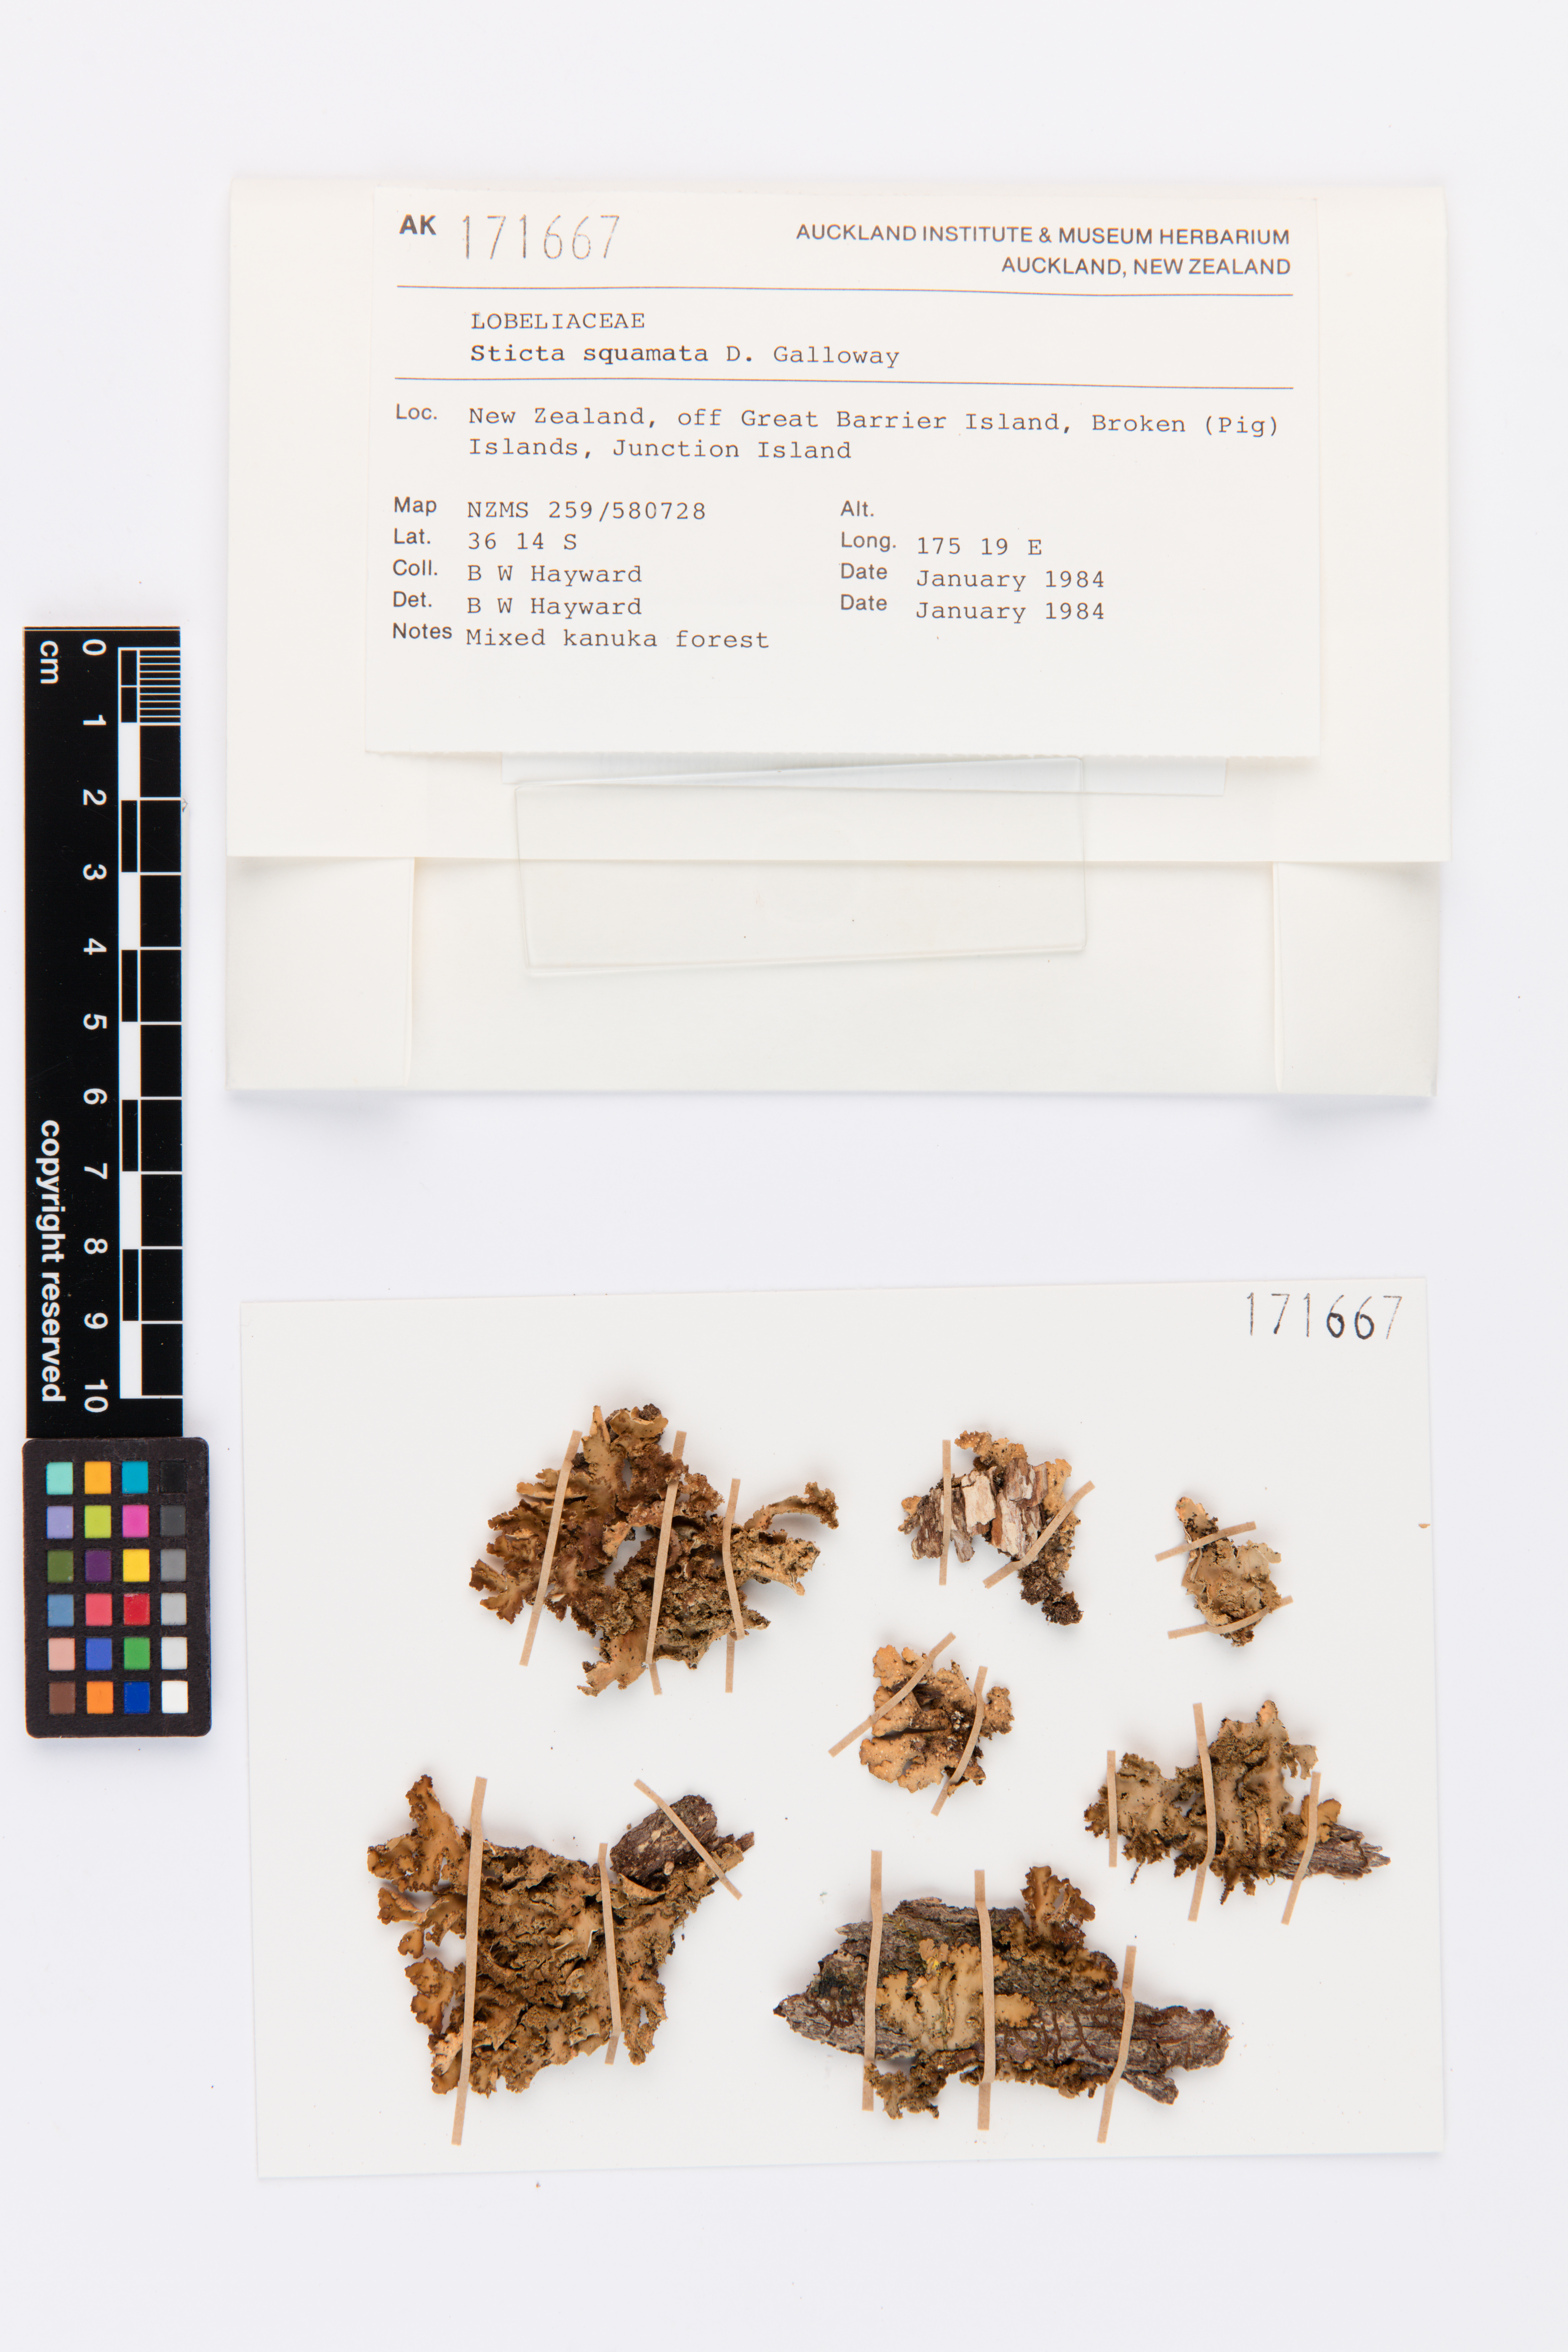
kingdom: Fungi
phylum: Ascomycota
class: Lecanoromycetes
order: Peltigerales
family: Lobariaceae
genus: Sticta
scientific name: Sticta squamata
